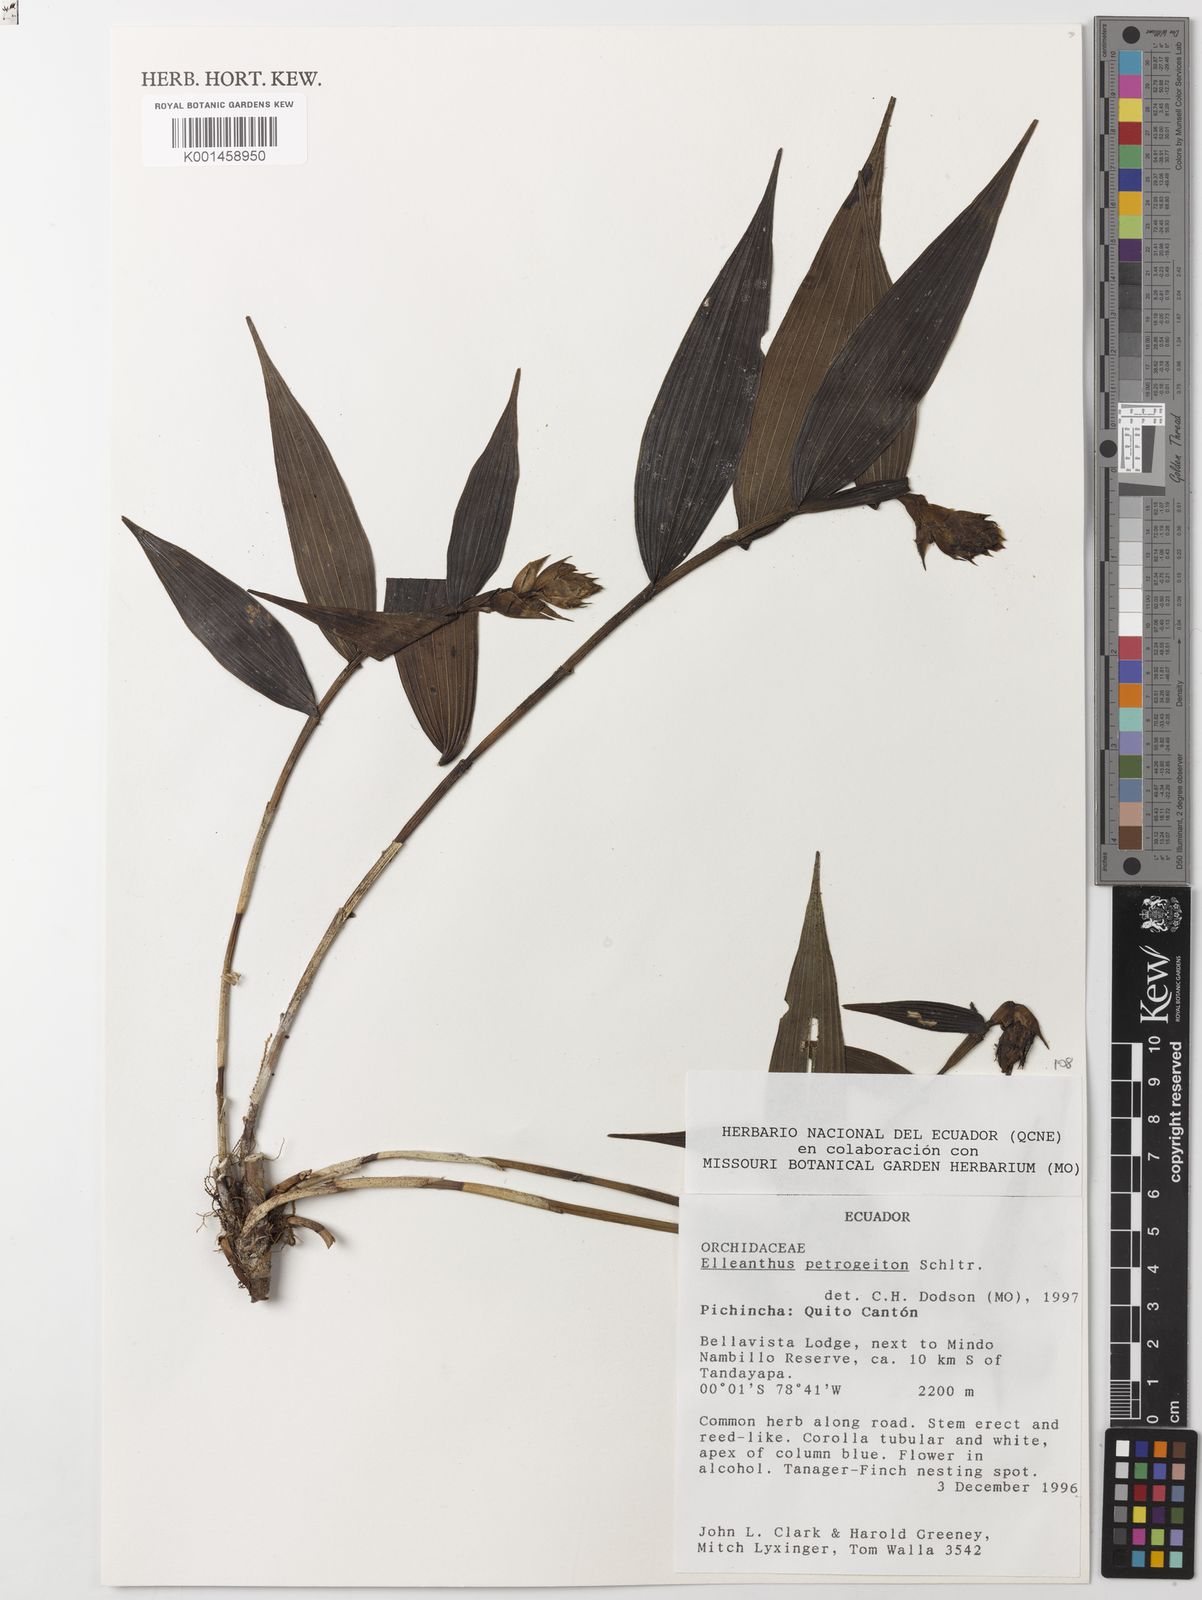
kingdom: Plantae
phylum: Tracheophyta
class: Liliopsida
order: Asparagales
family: Orchidaceae
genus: Elleanthus
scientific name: Elleanthus petrogeiton
